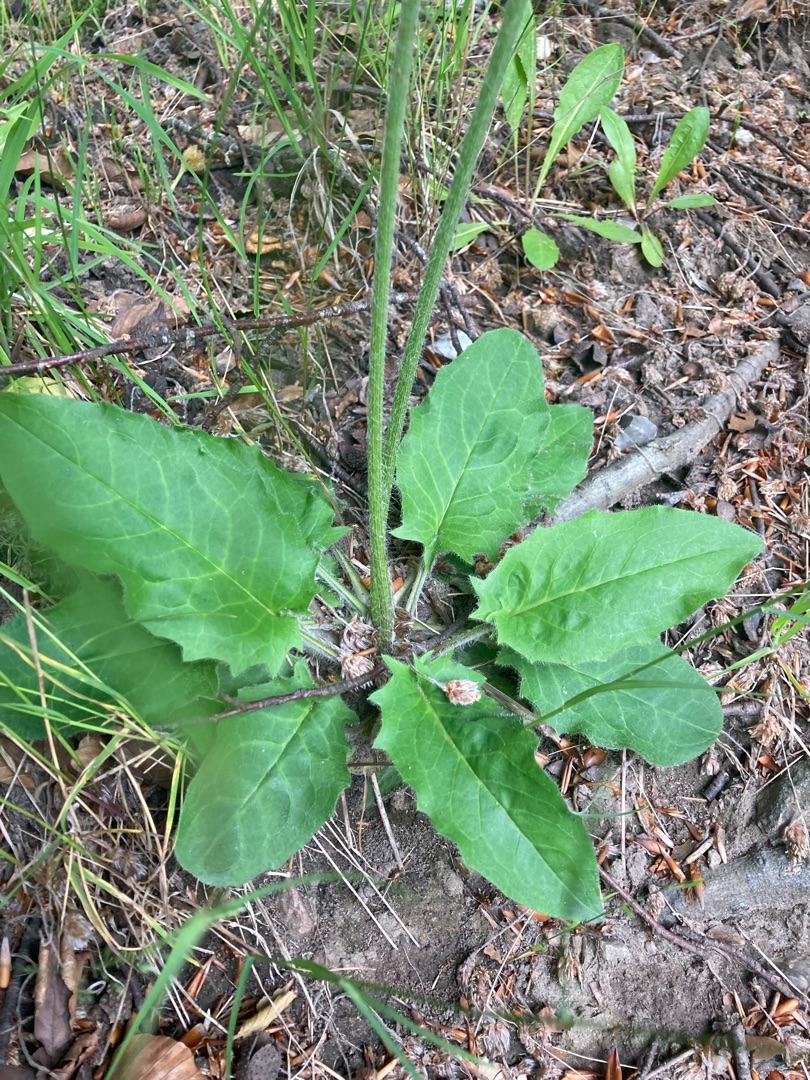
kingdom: Plantae
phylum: Tracheophyta
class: Magnoliopsida
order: Asterales
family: Asteraceae
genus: Hieracium
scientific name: Hieracium
